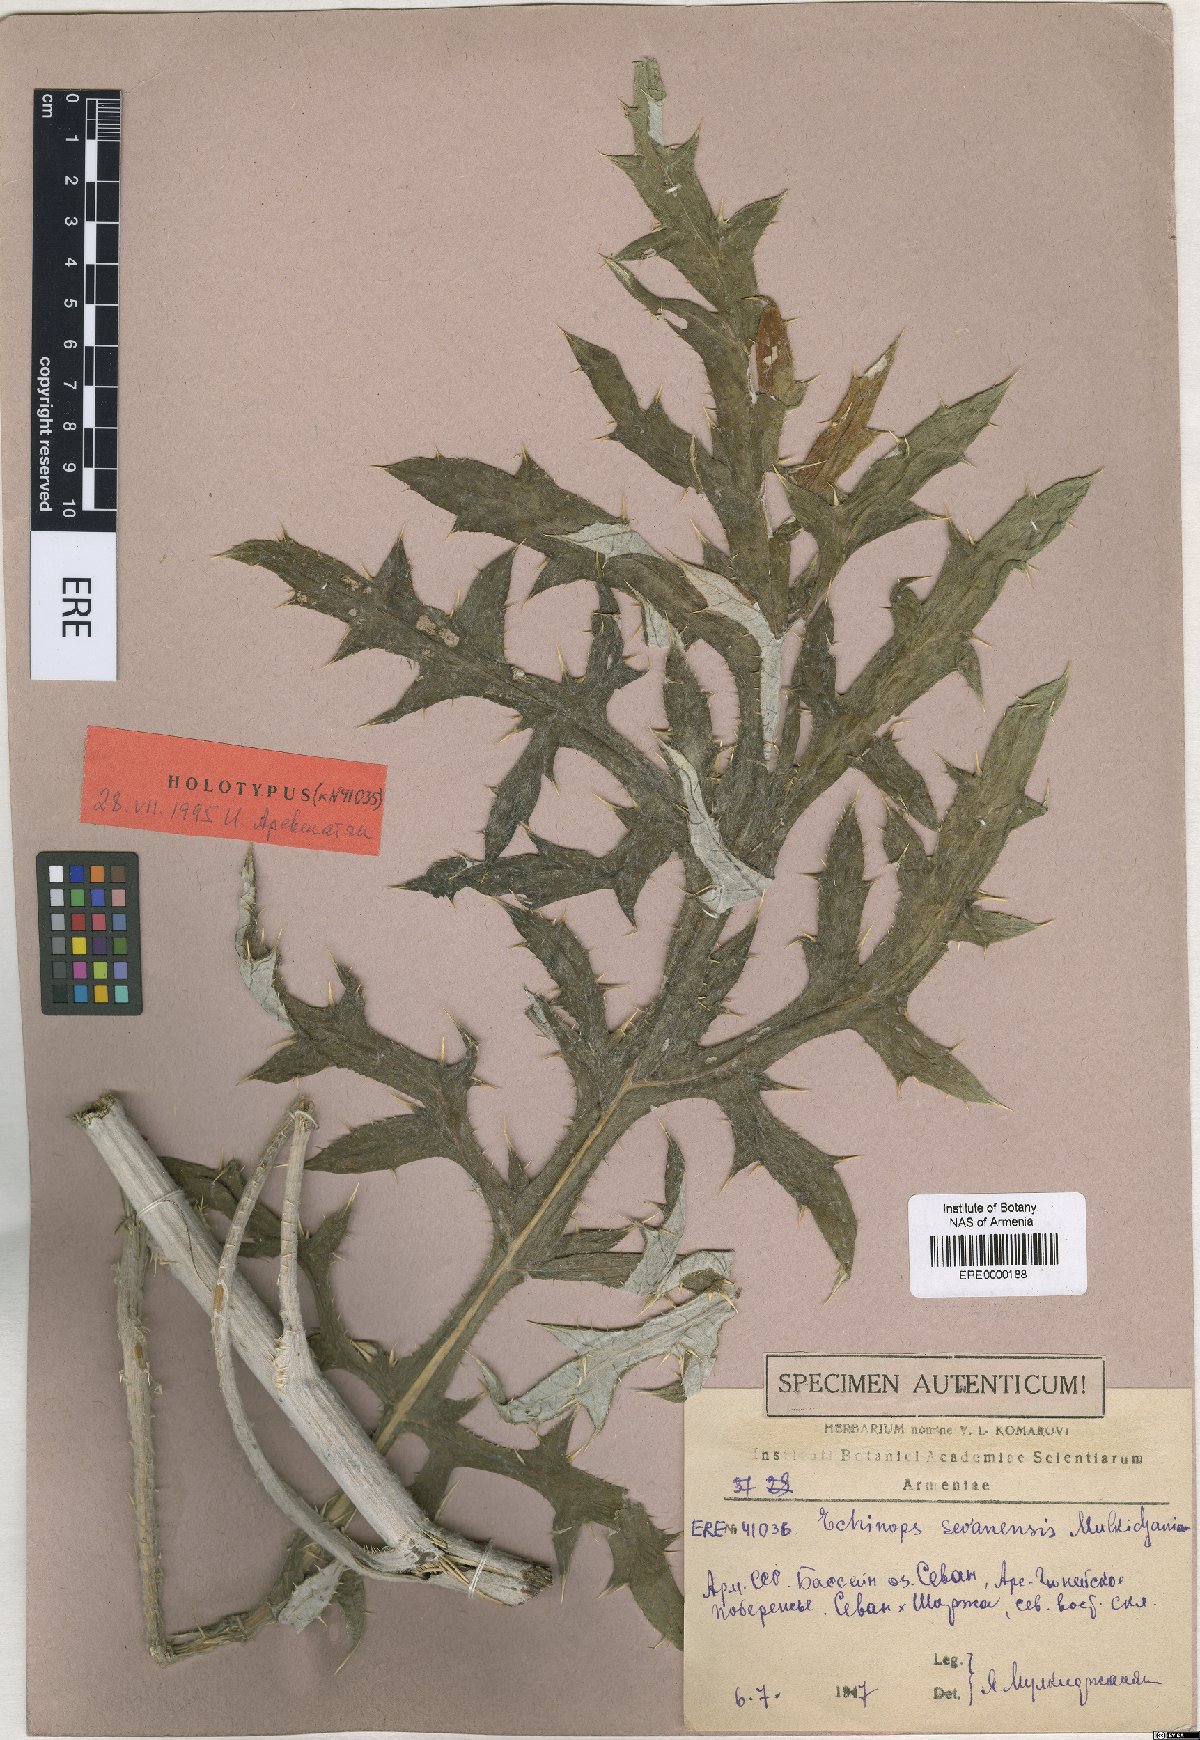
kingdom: Plantae
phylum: Tracheophyta
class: Magnoliopsida
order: Asterales
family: Asteraceae
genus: Echinops
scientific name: Echinops transcaucasicus
